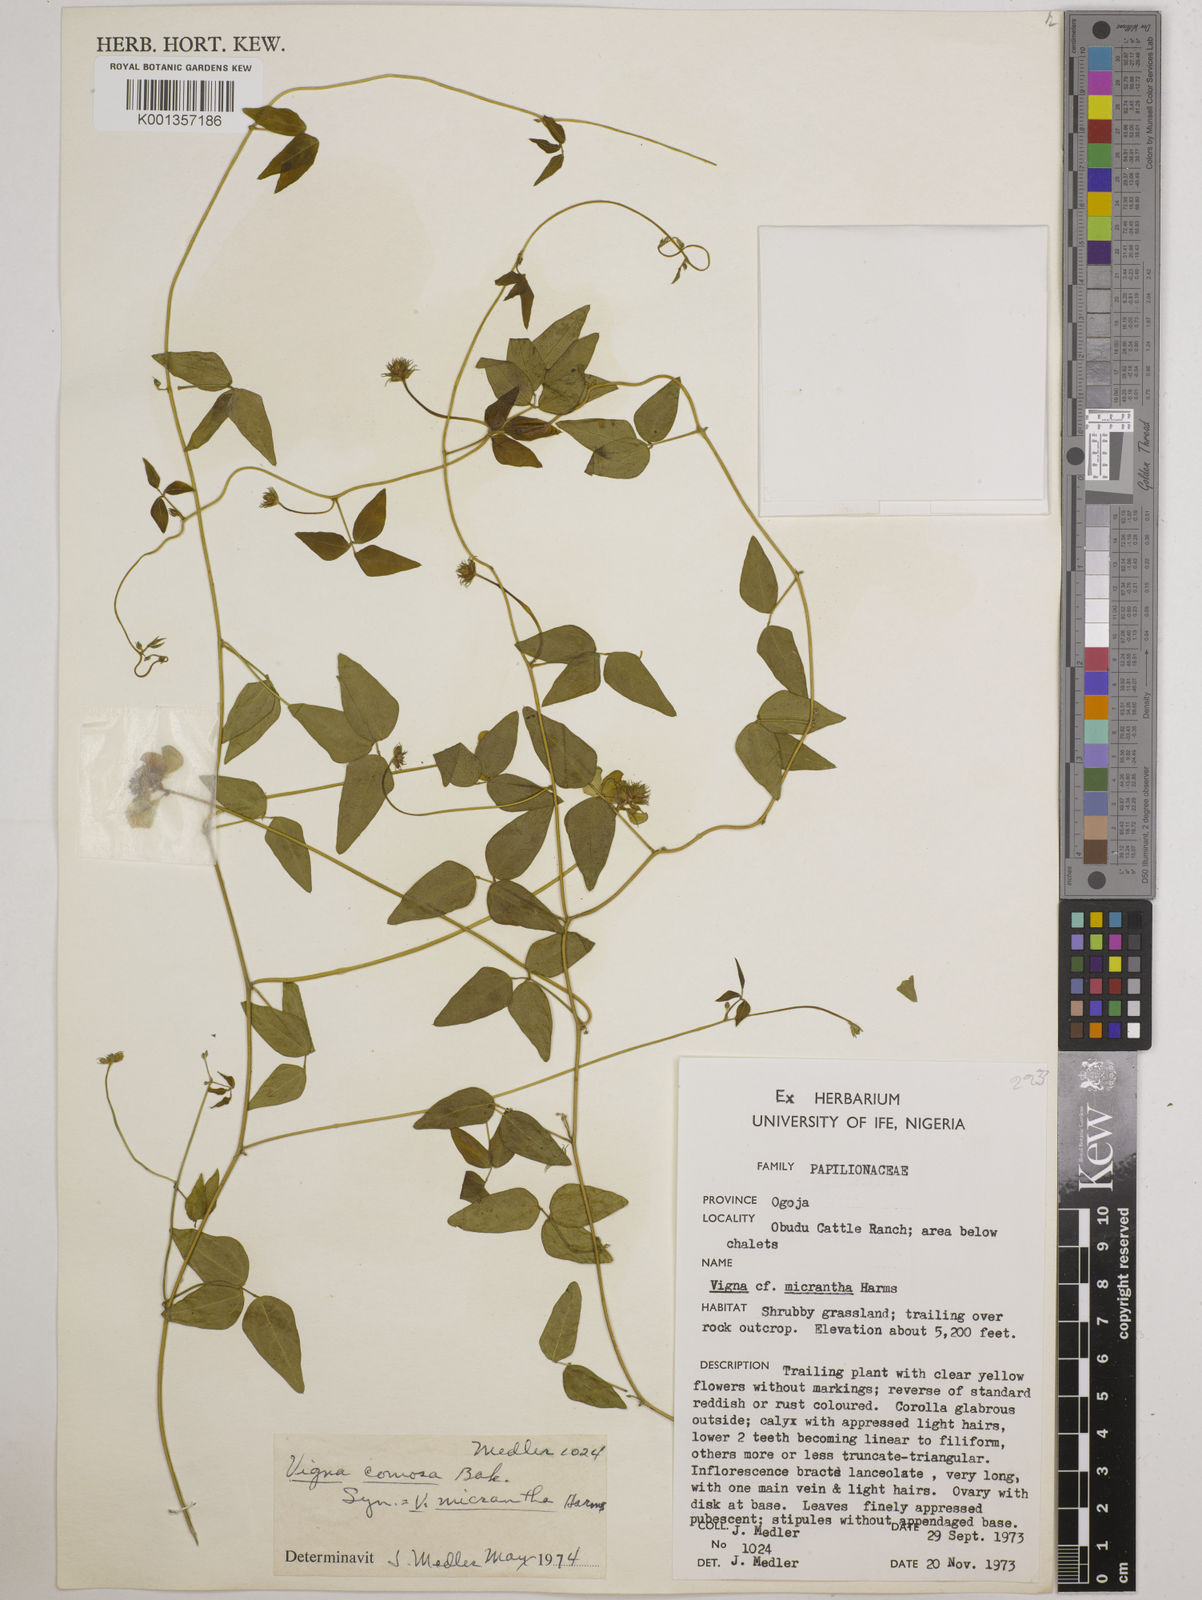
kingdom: Plantae
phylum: Tracheophyta
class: Magnoliopsida
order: Fabales
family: Fabaceae
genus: Vigna
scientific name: Vigna comosa
